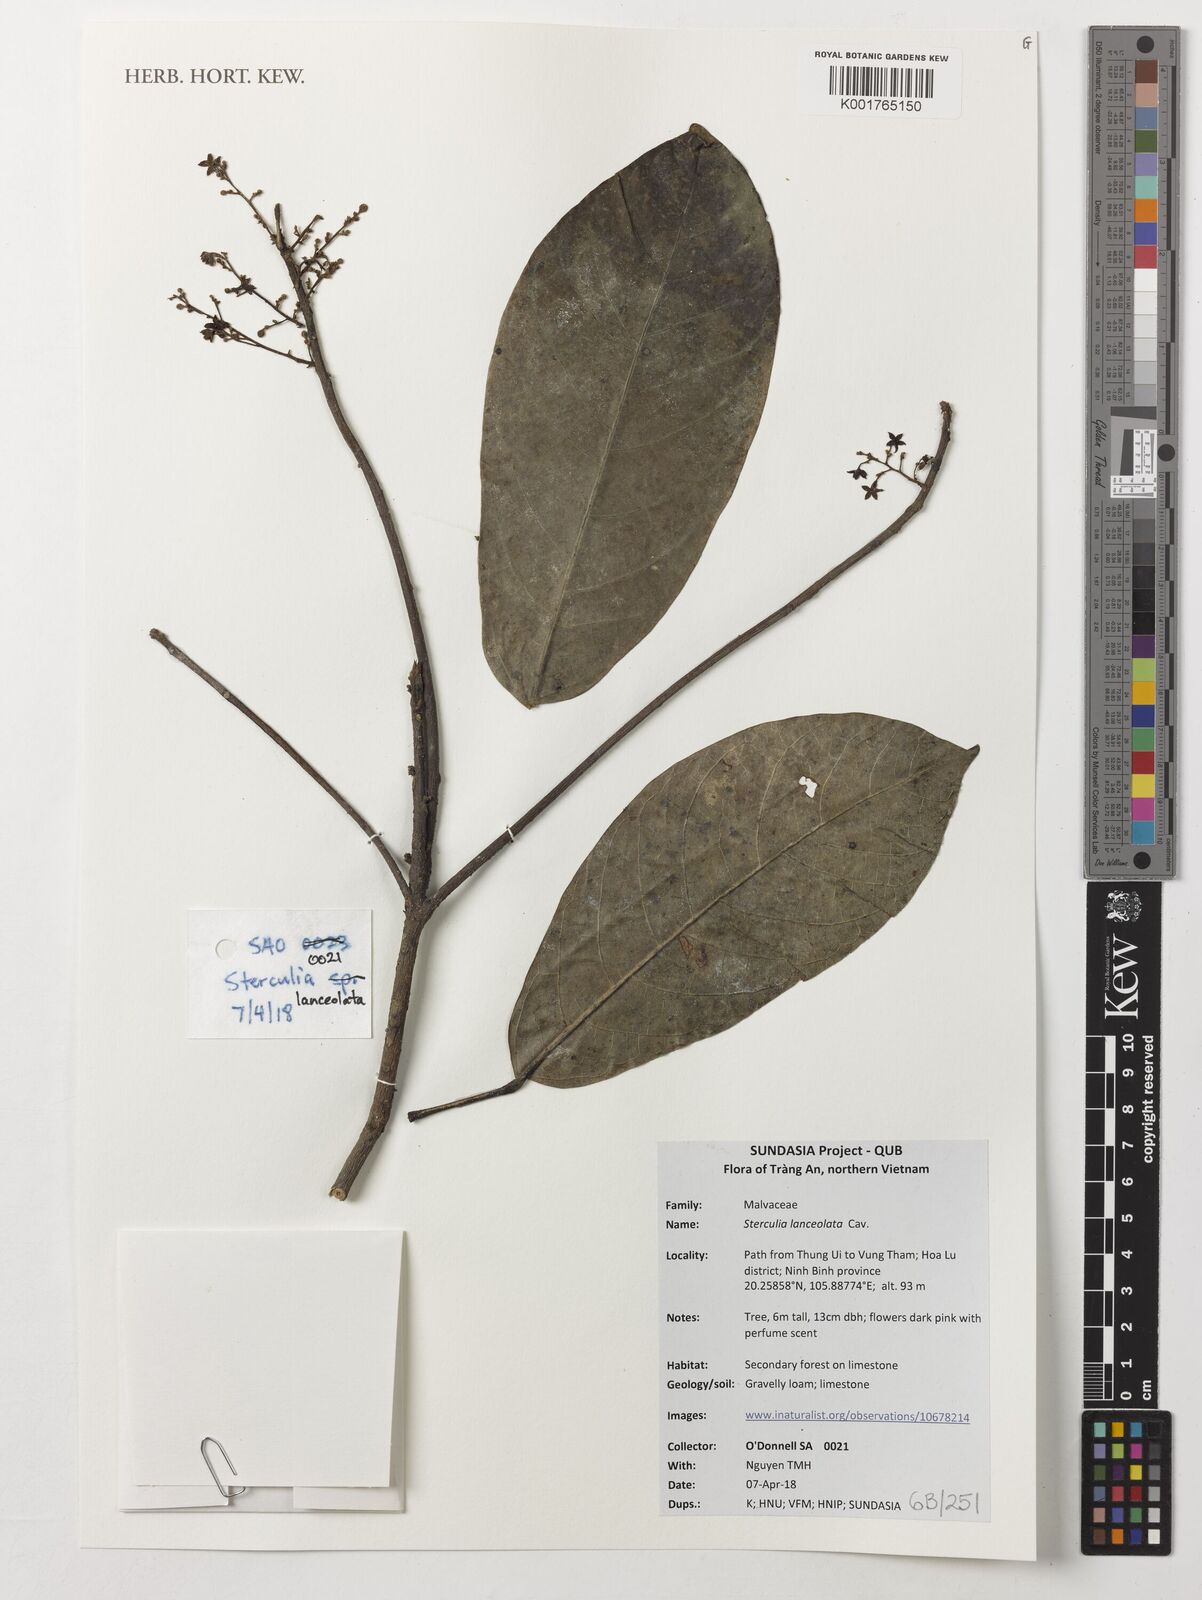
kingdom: Plantae
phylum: Tracheophyta
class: Magnoliopsida
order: Malvales
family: Malvaceae
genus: Sterculia
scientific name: Sterculia lanceolata
